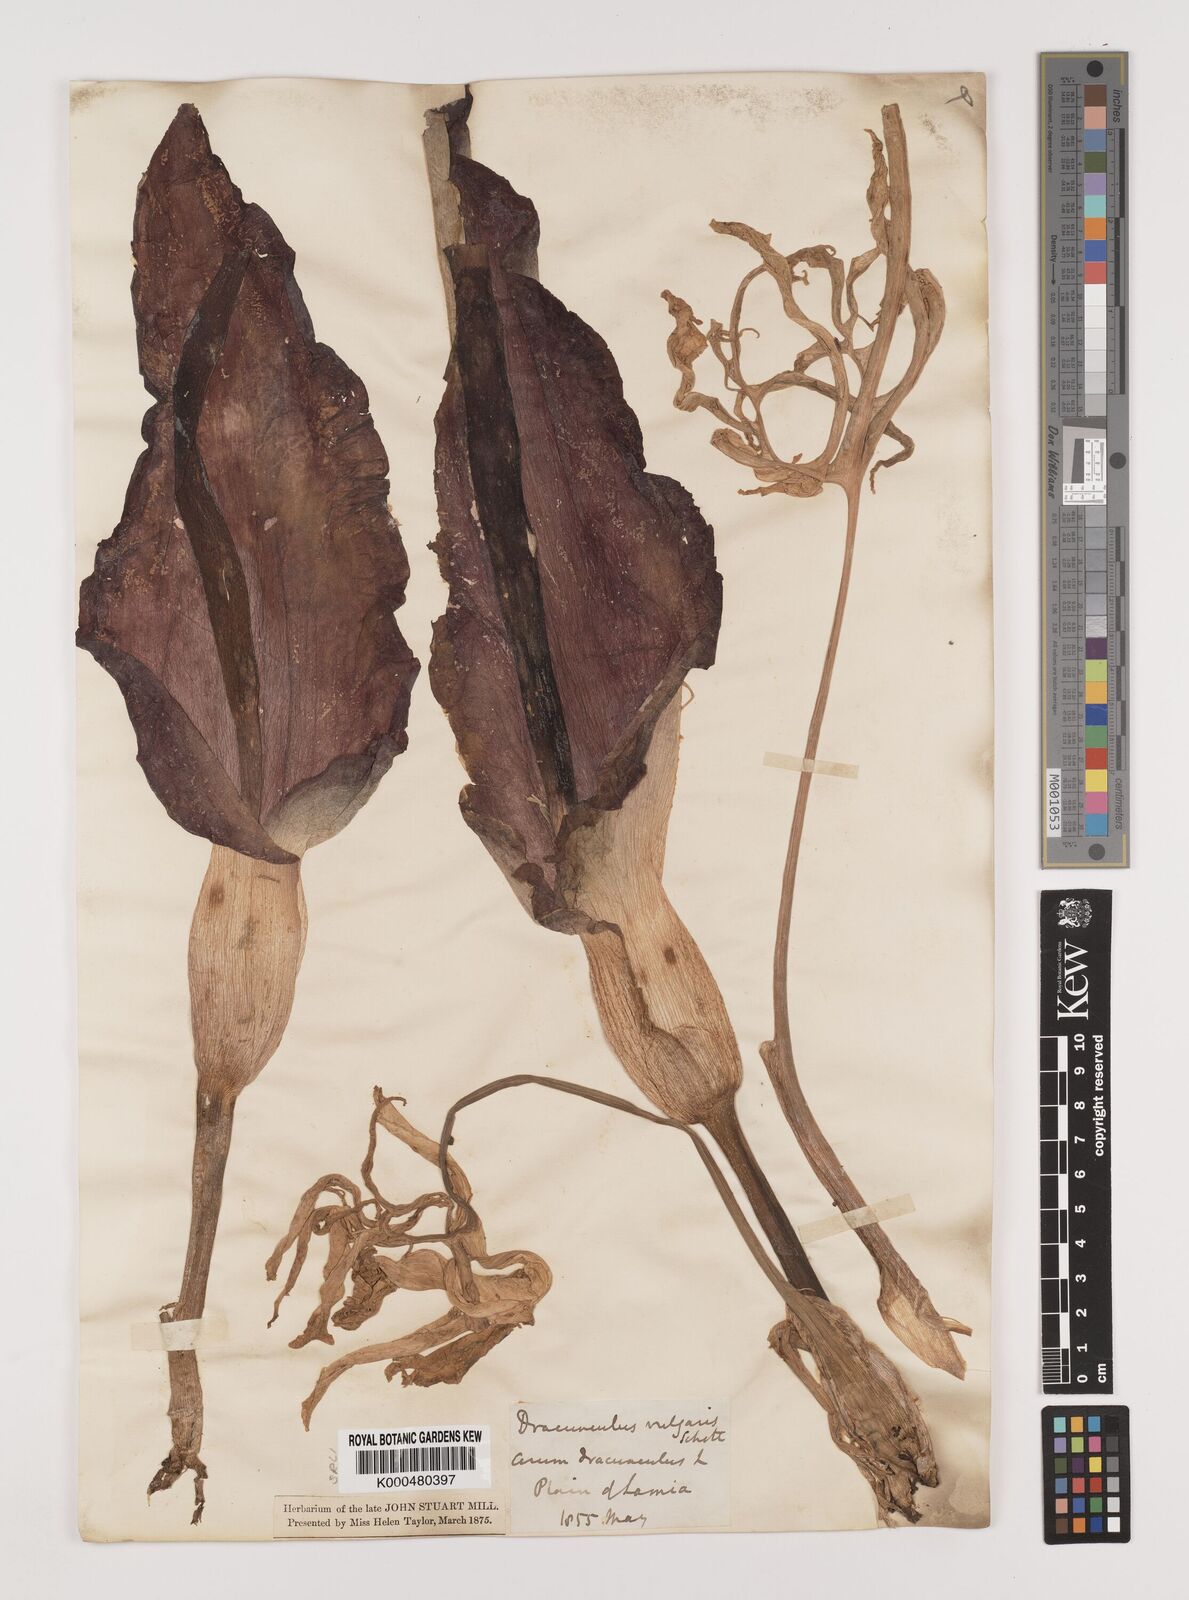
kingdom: Plantae
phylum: Tracheophyta
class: Liliopsida
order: Alismatales
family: Araceae
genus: Dracunculus
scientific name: Dracunculus vulgaris
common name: Dragon arum
